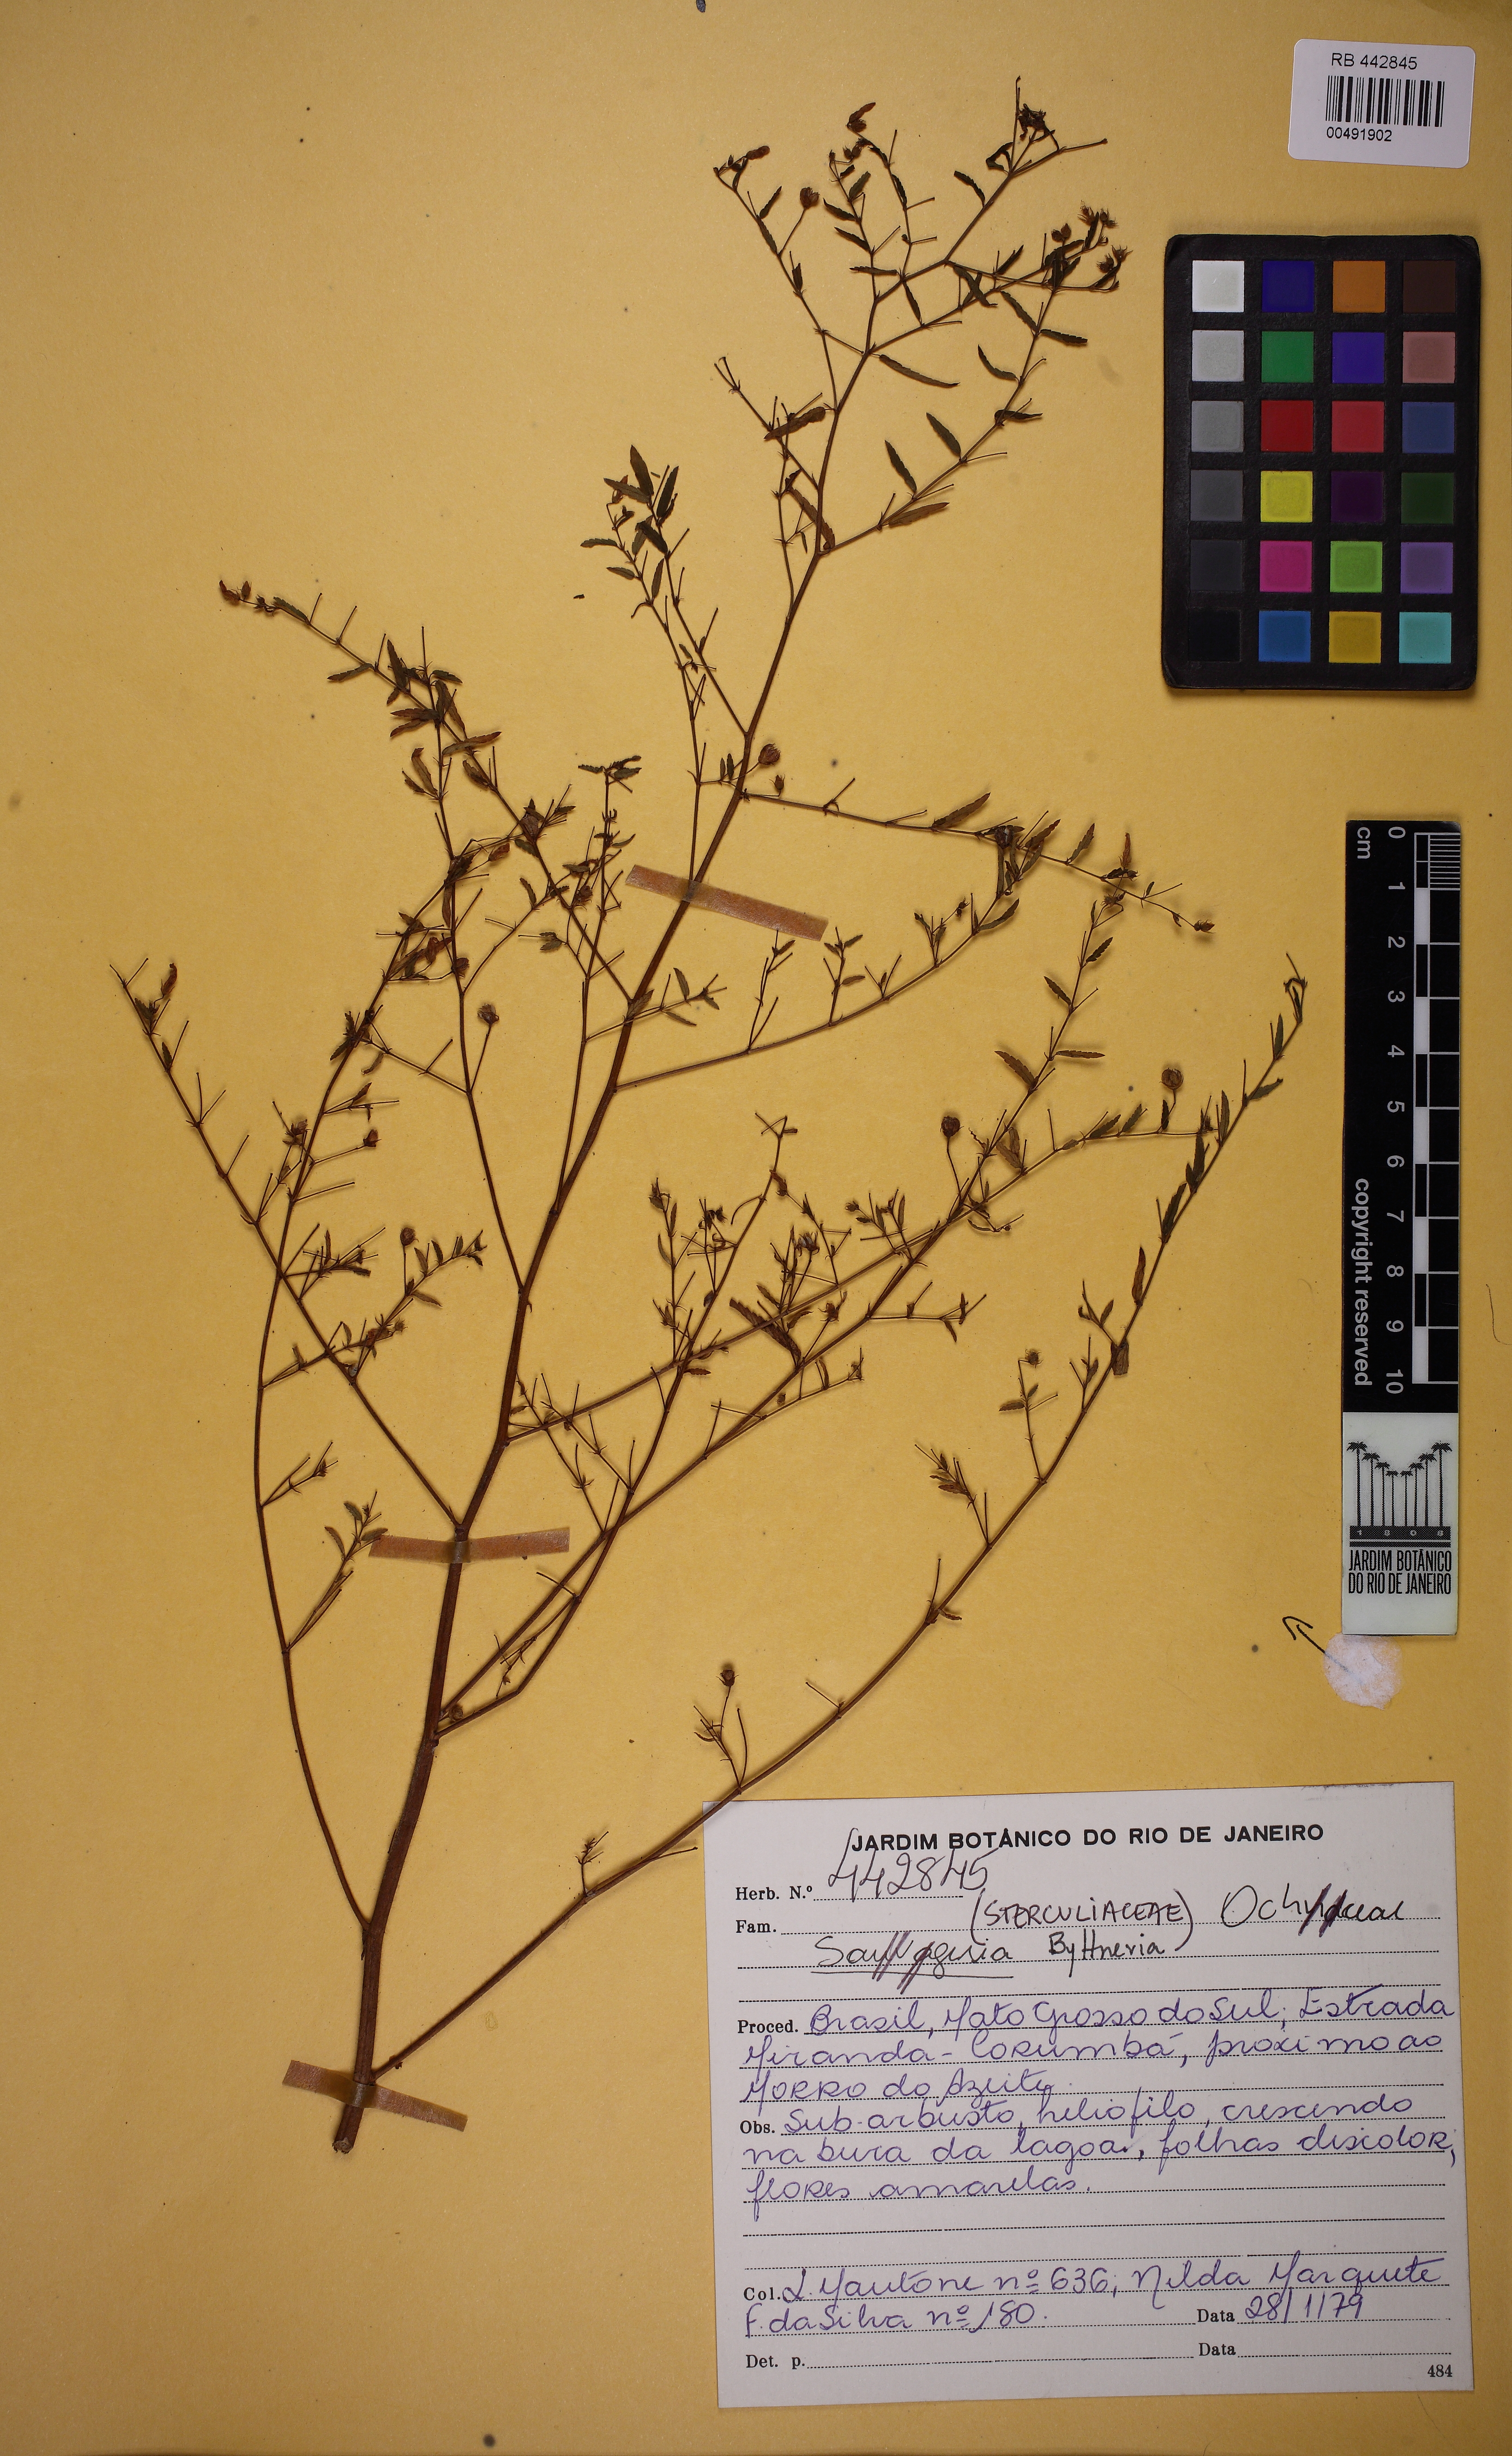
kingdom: Plantae
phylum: Tracheophyta
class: Magnoliopsida
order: Malvales
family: Malvaceae
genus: Byttneria
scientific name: Byttneria
